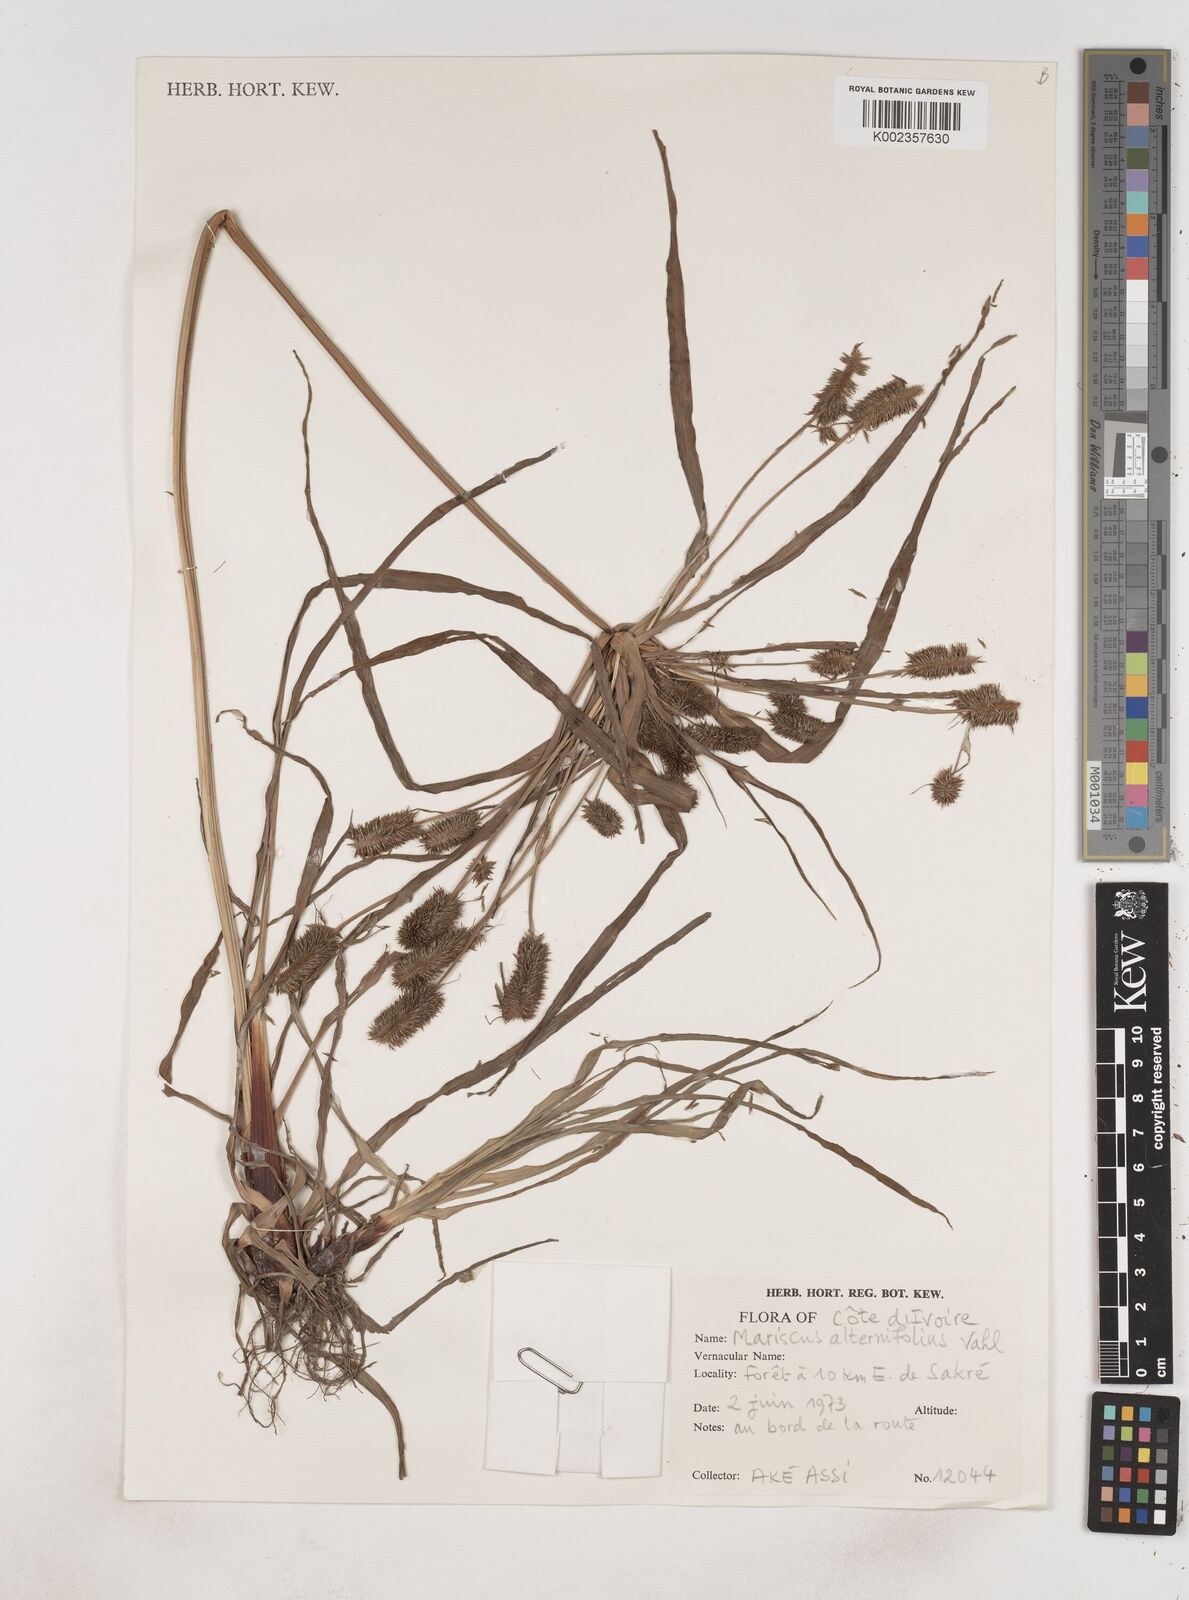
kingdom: Plantae
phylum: Tracheophyta
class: Liliopsida
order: Poales
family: Cyperaceae
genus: Cyperus
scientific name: Cyperus cyperoides
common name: Pacific island flat sedge
